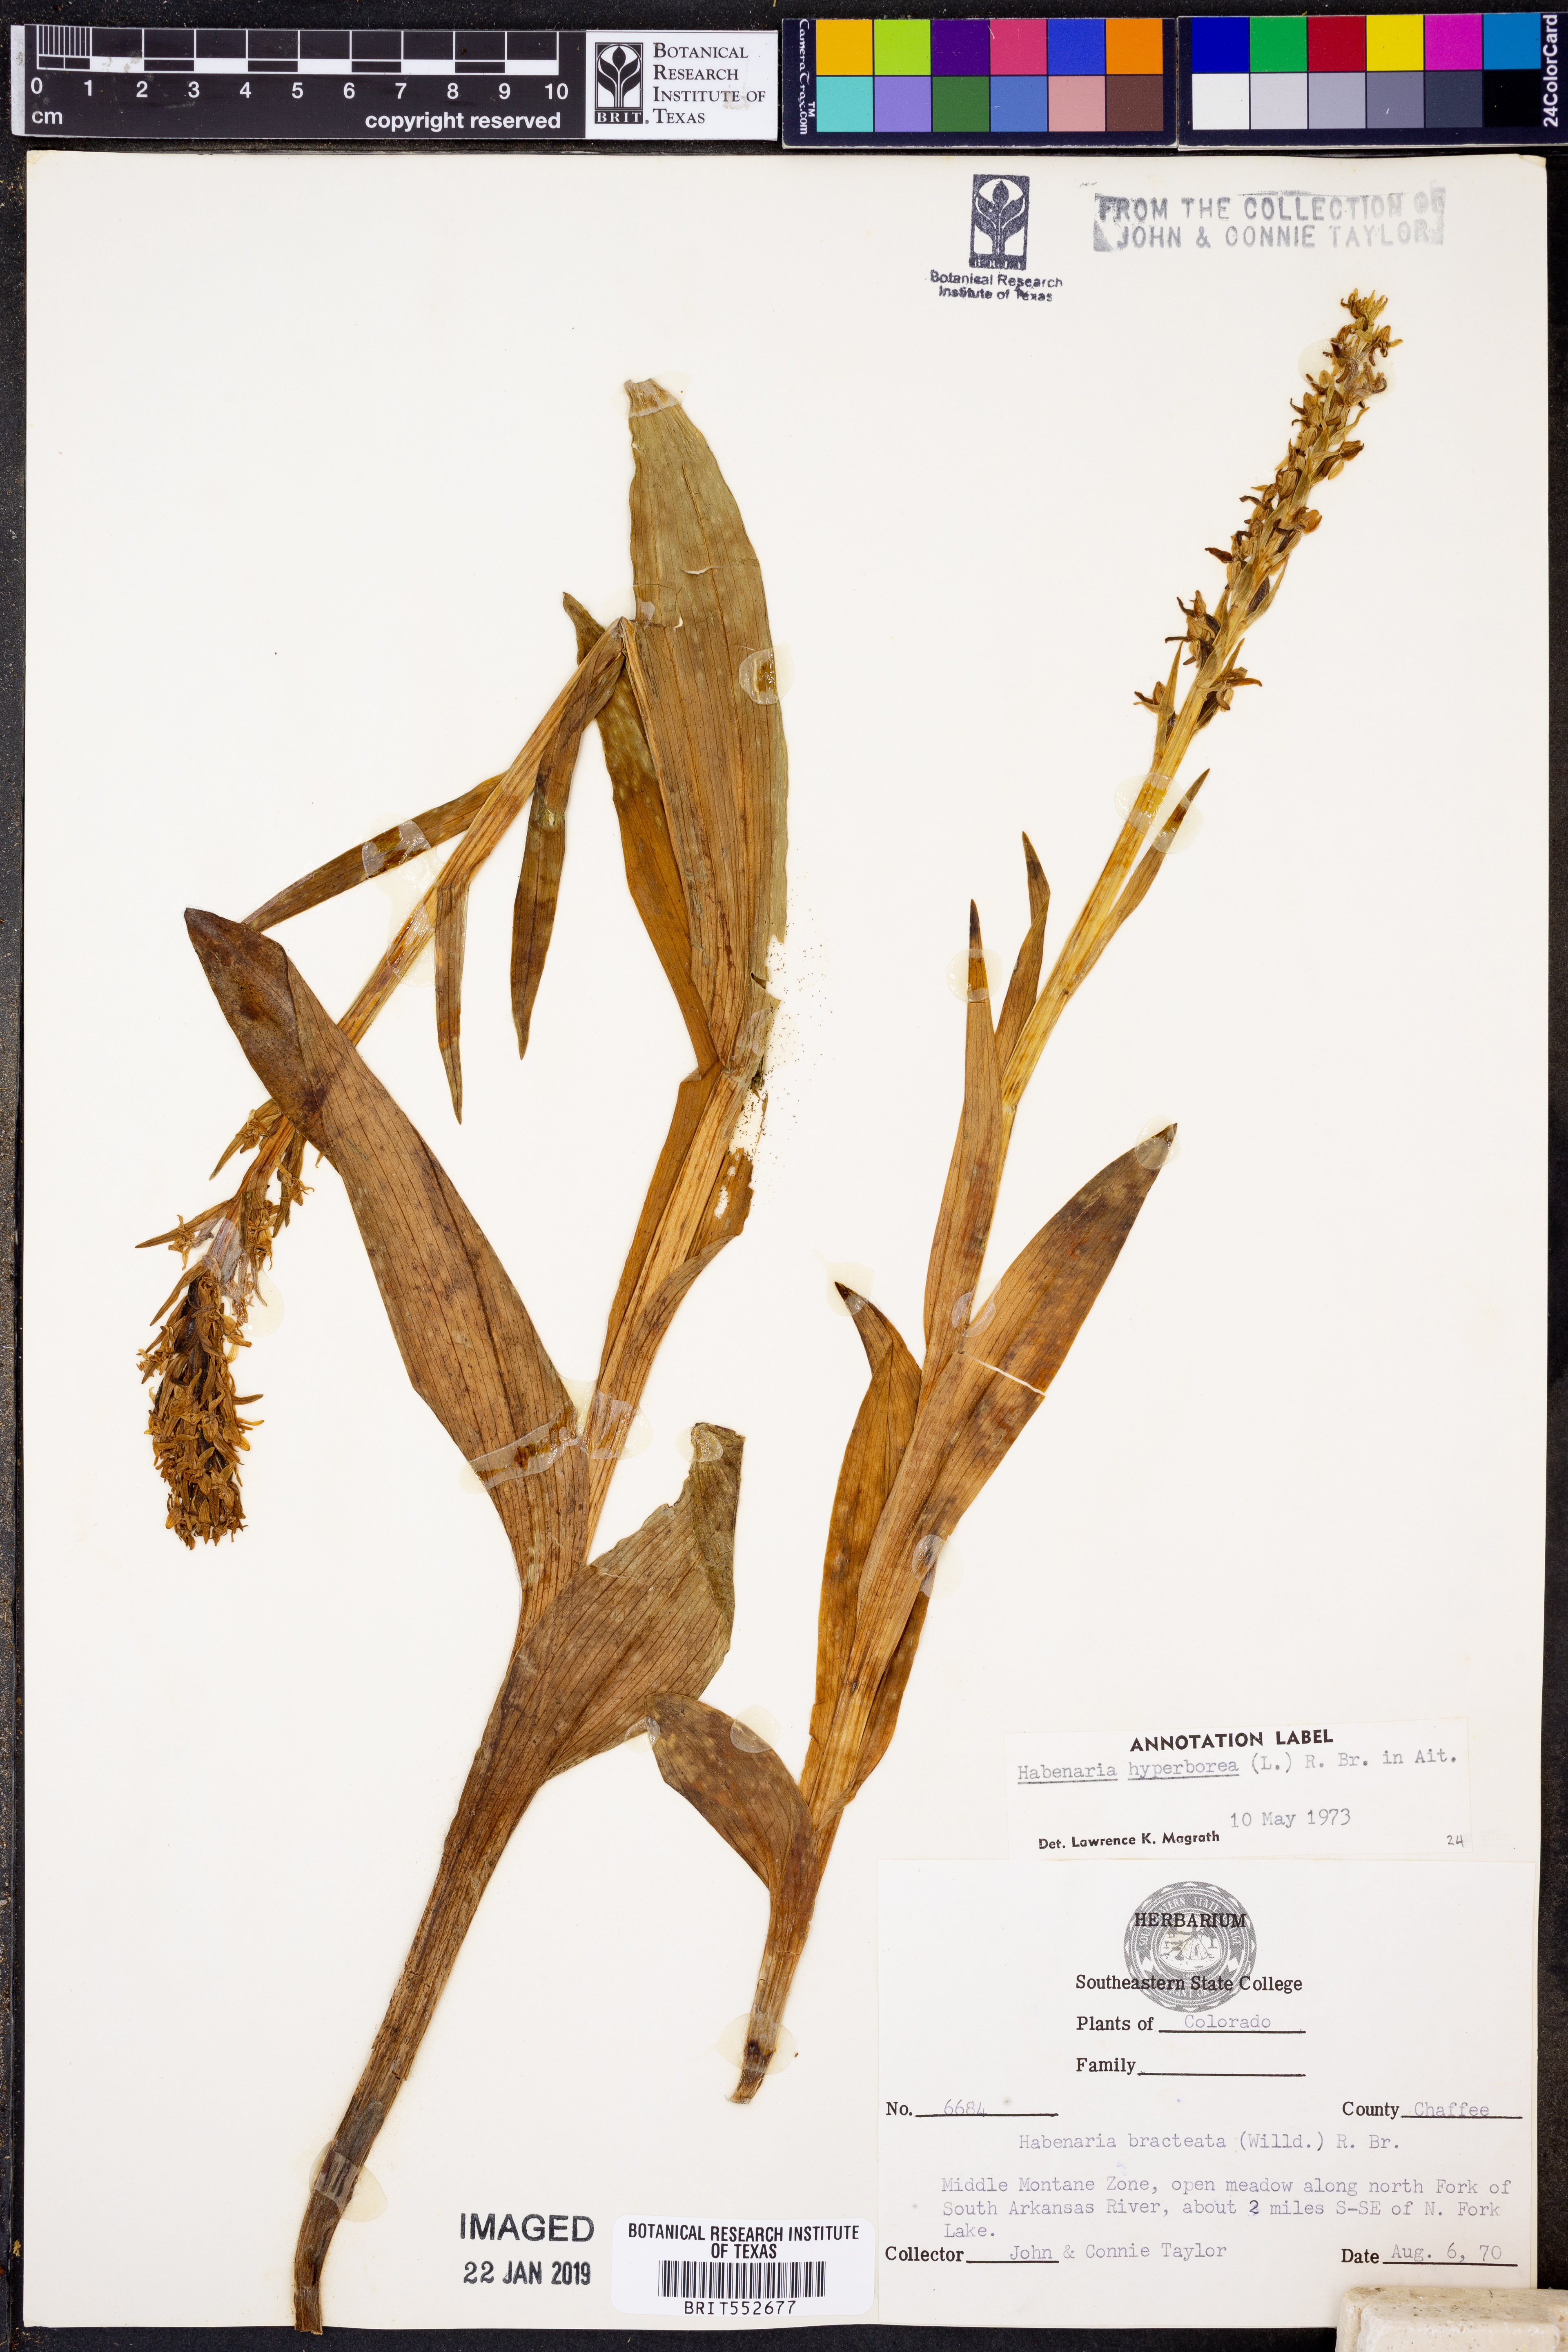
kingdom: Plantae
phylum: Tracheophyta
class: Liliopsida
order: Asparagales
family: Orchidaceae
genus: Platanthera
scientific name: Platanthera hyperborea
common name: Northern green orchid
